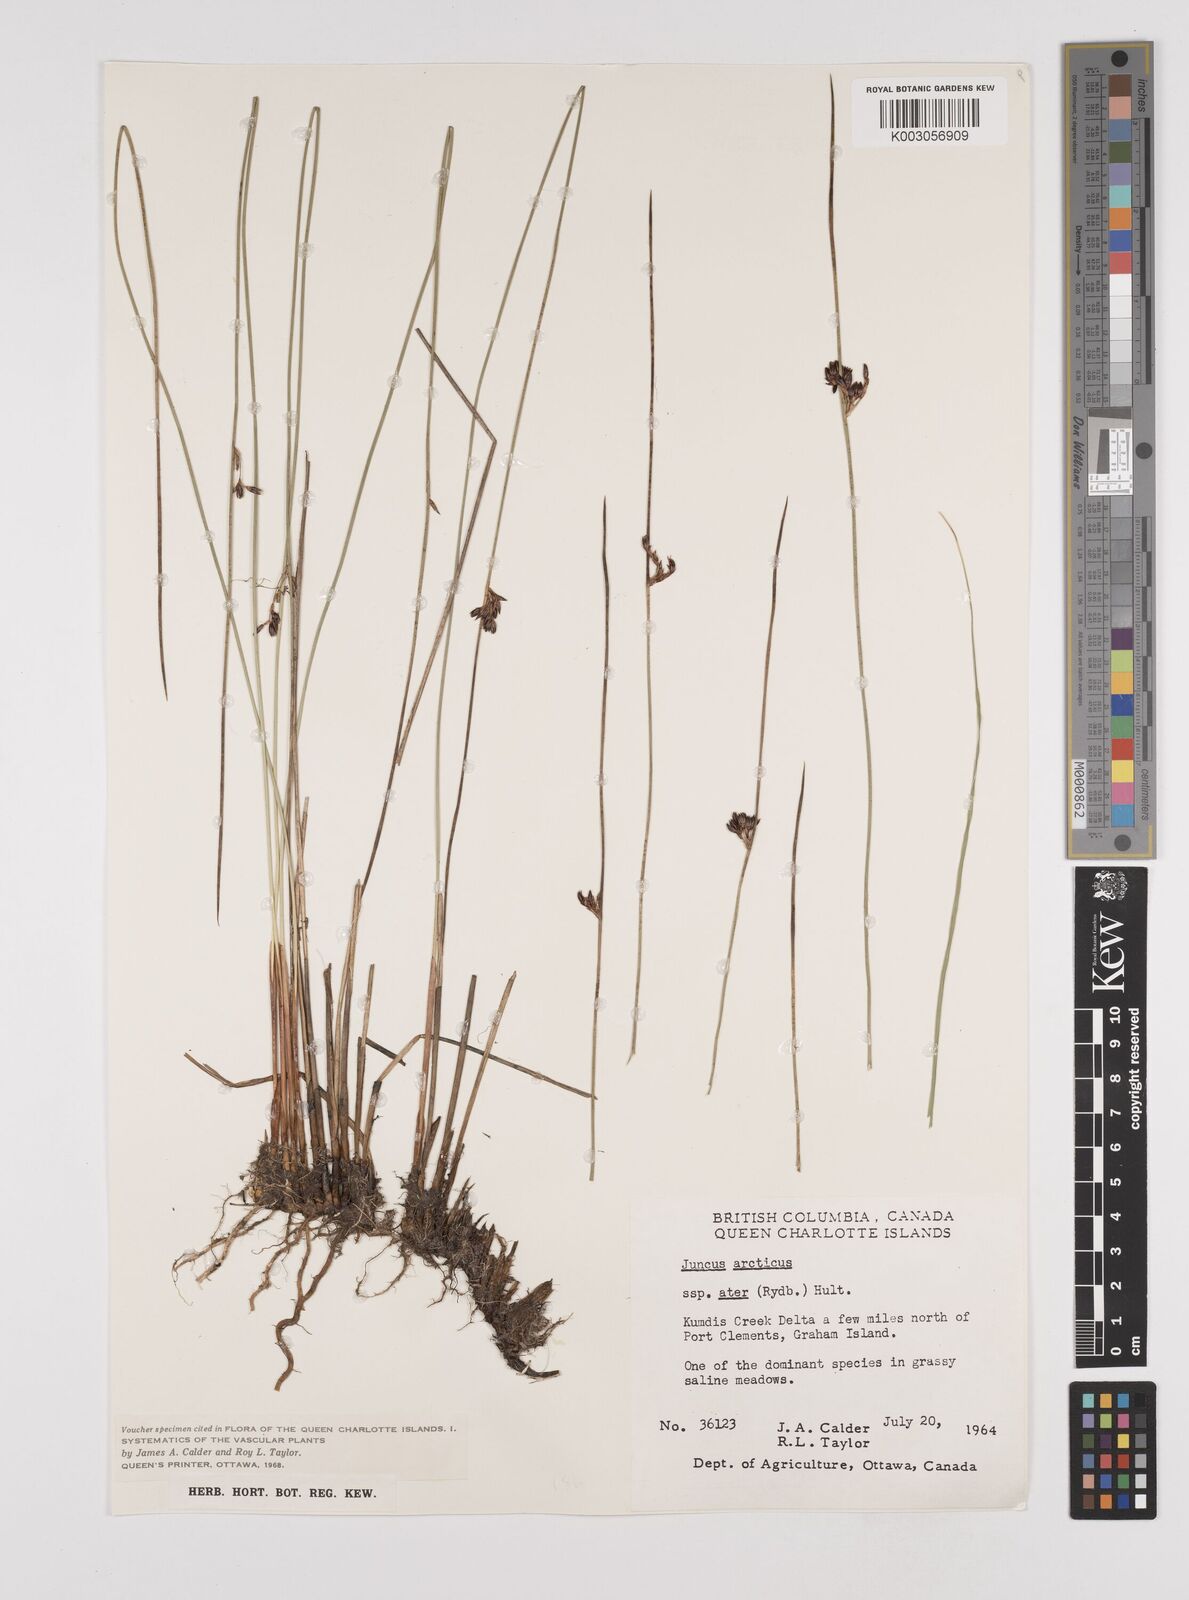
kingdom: Plantae
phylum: Tracheophyta
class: Liliopsida
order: Poales
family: Juncaceae
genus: Juncus
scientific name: Juncus arcticus
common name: Arctic rush
